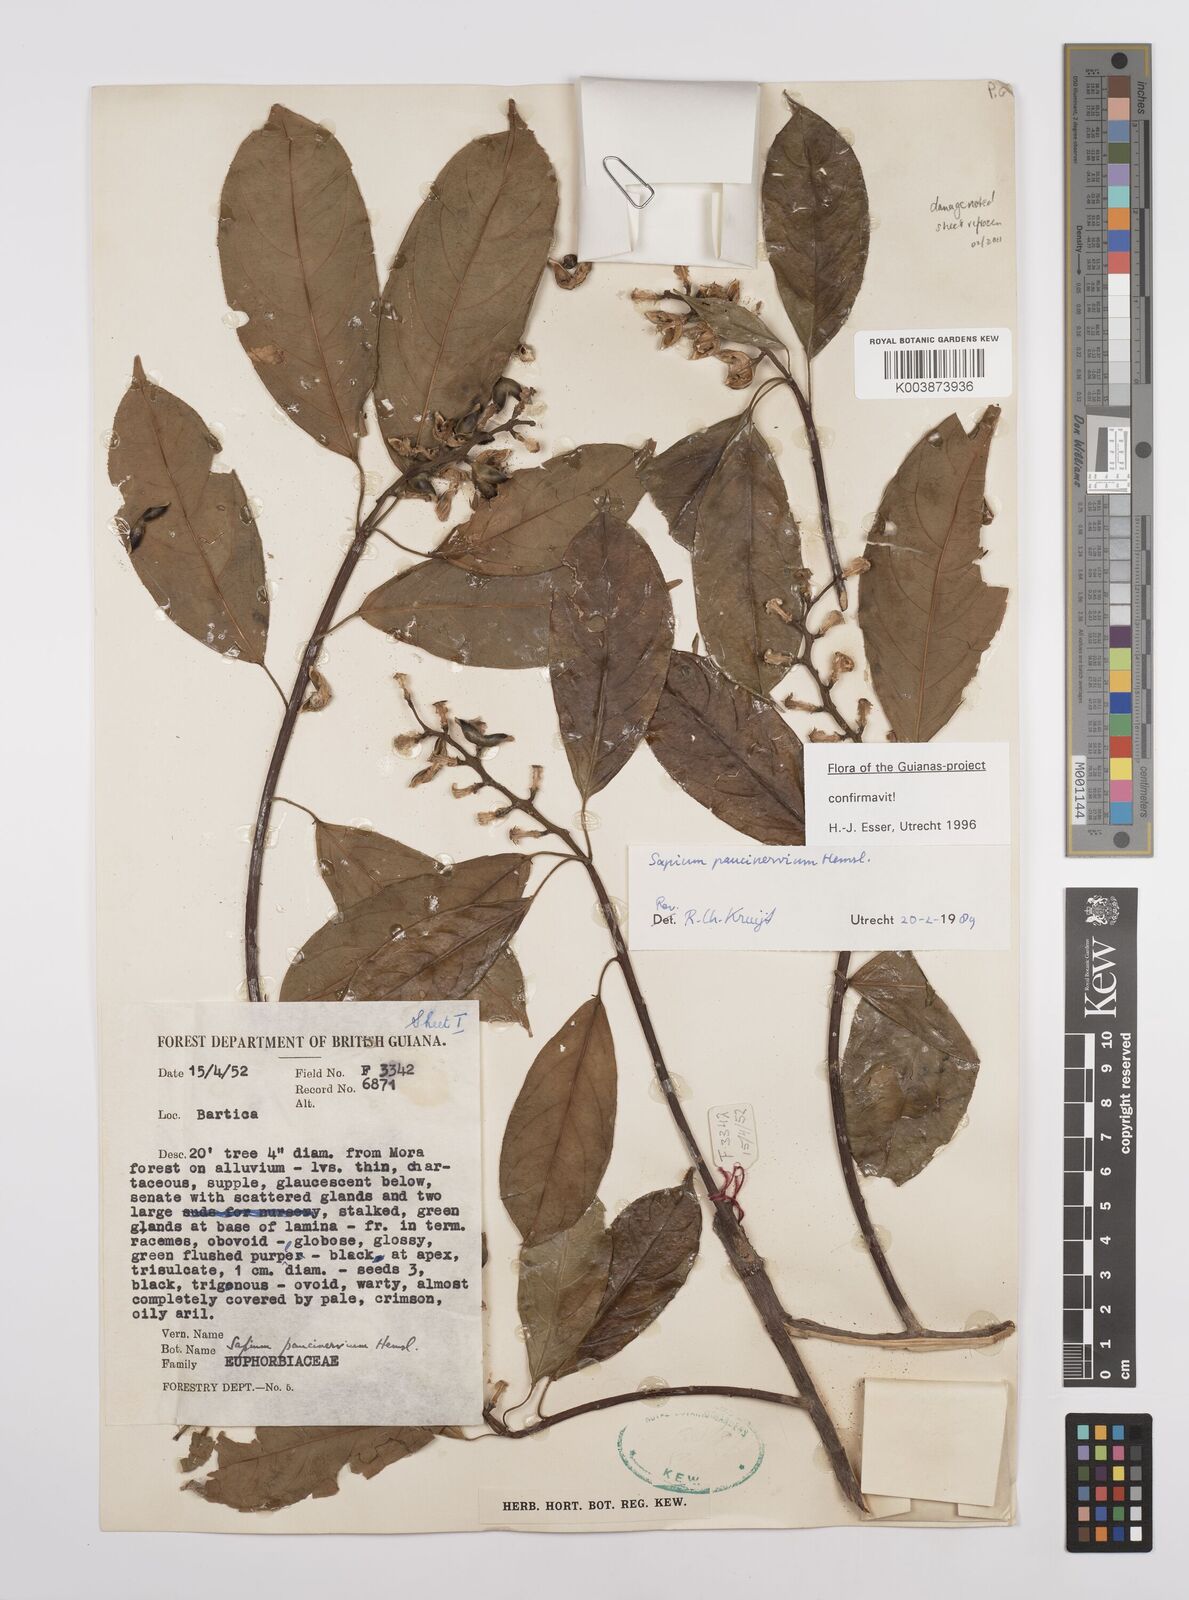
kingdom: Plantae
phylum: Tracheophyta
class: Magnoliopsida
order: Malpighiales
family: Euphorbiaceae
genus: Sapium
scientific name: Sapium paucinervium
